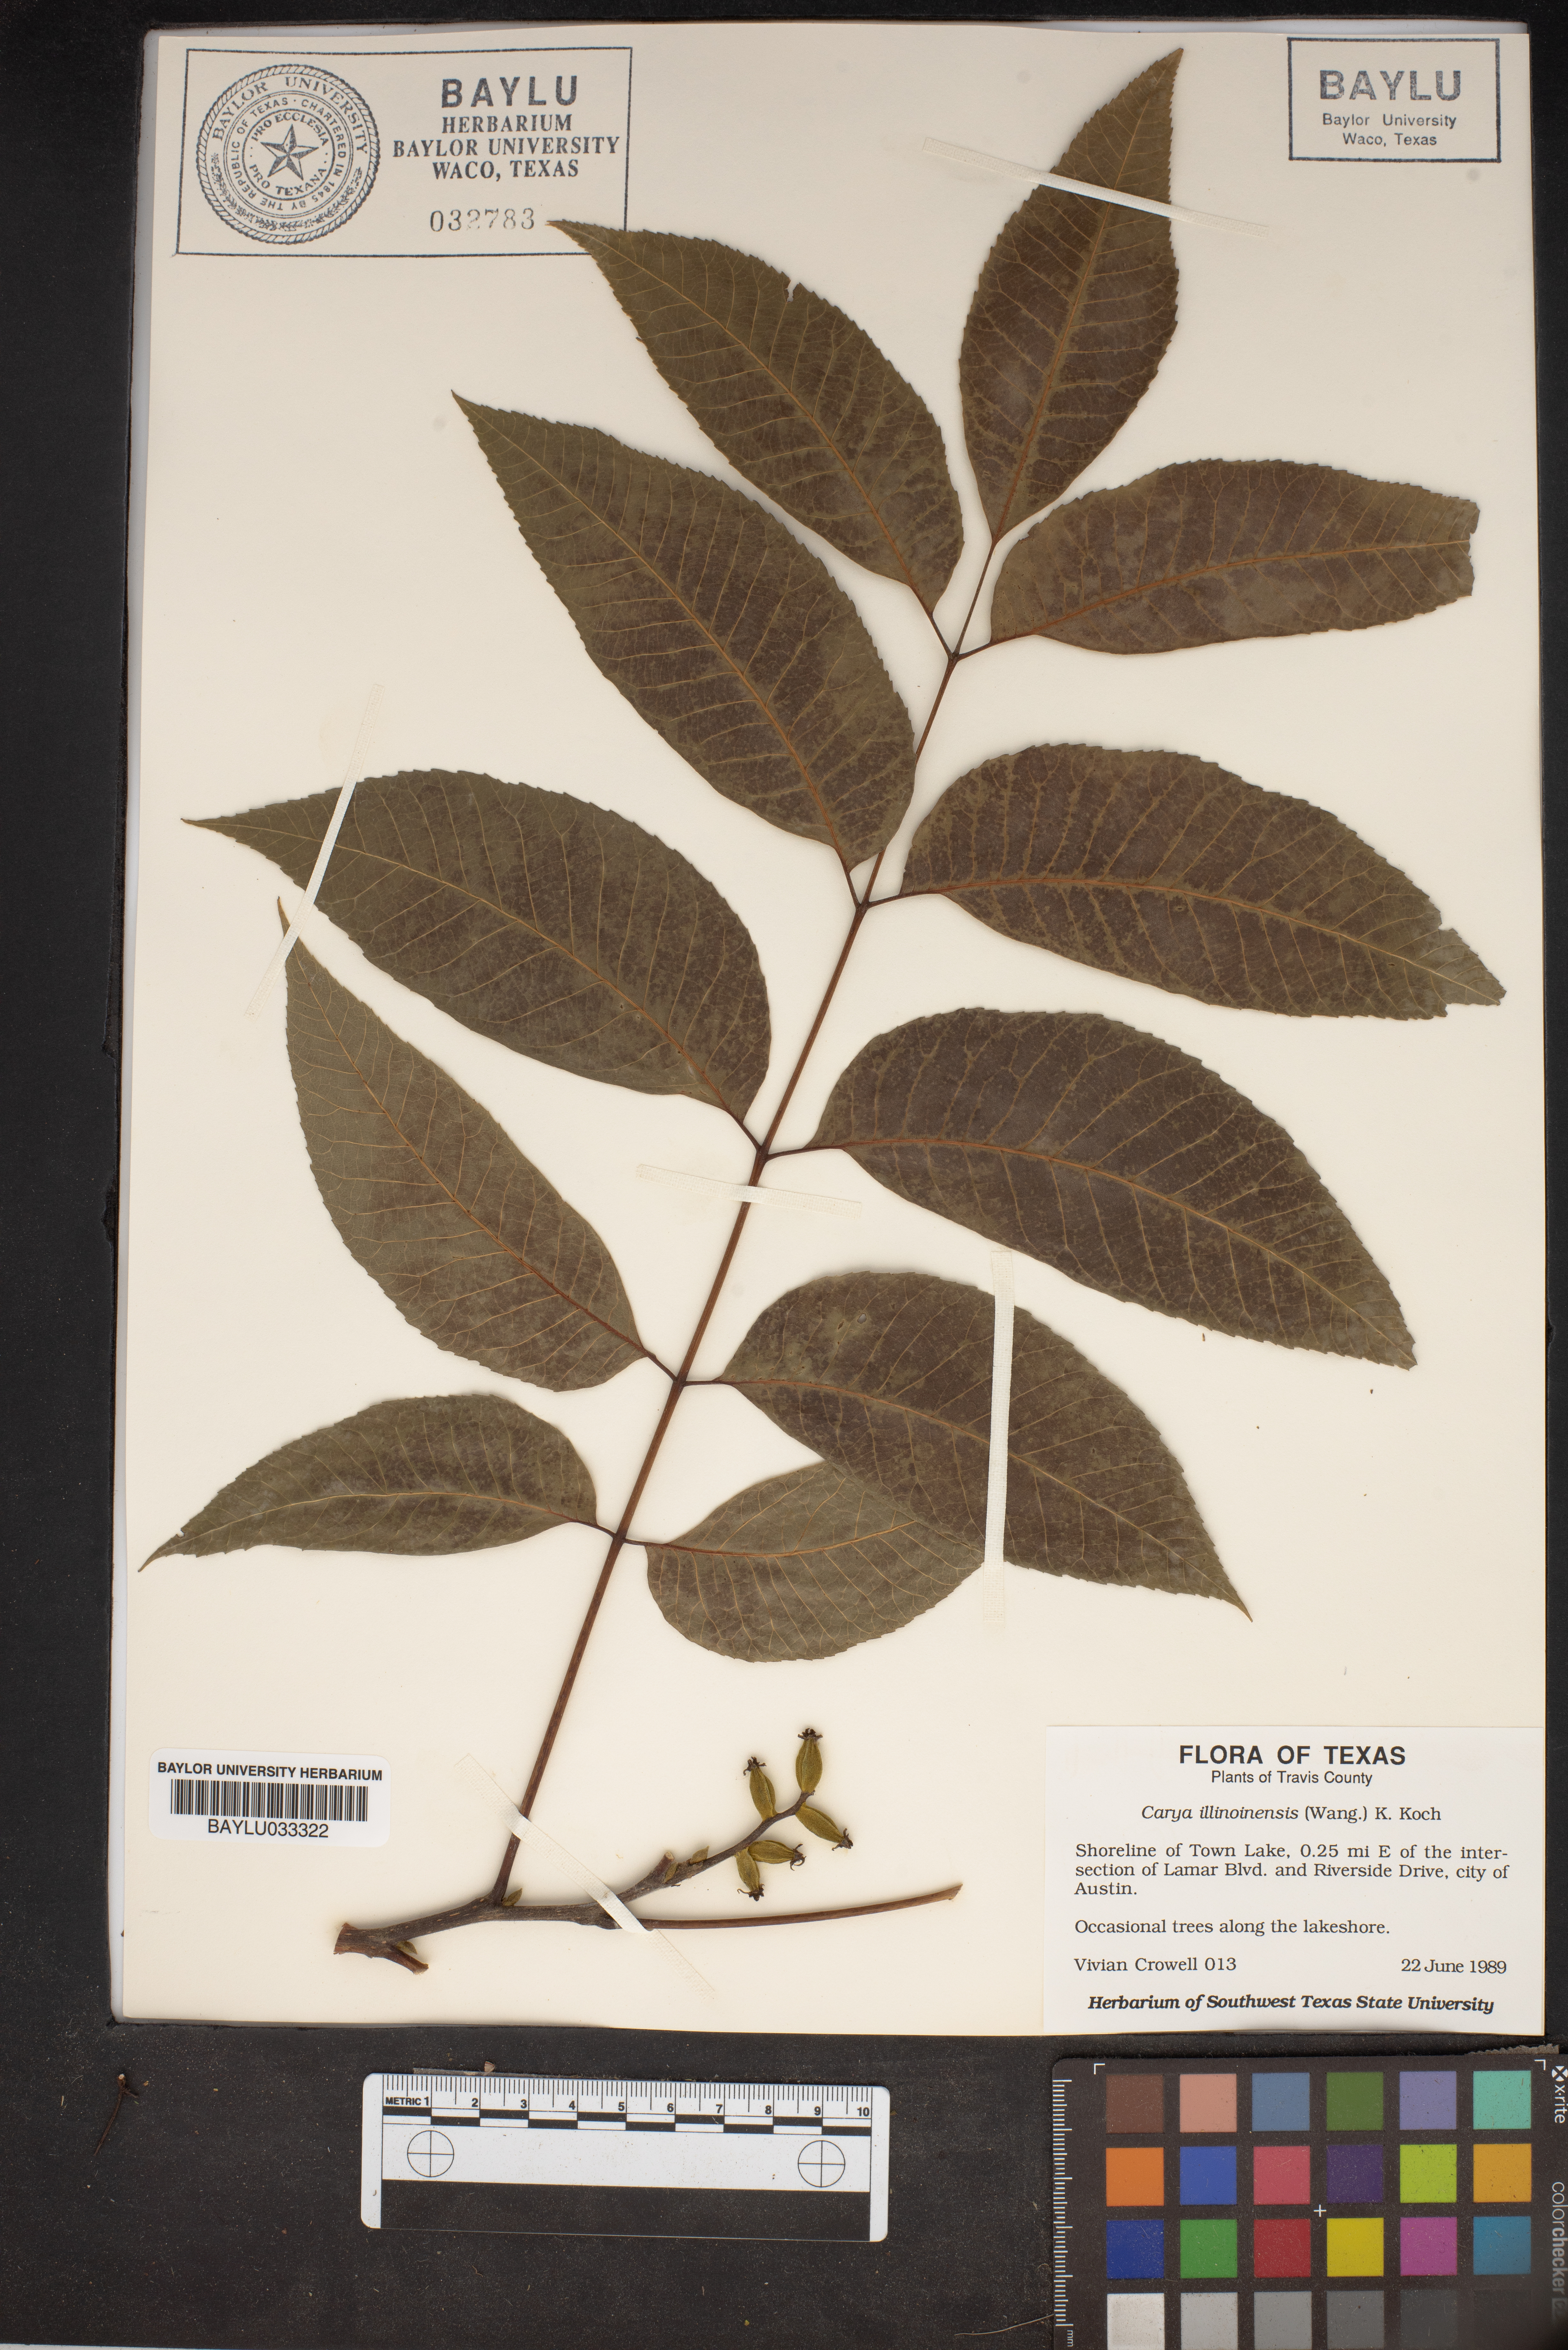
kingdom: Plantae
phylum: Tracheophyta
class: Magnoliopsida
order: Fagales
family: Juglandaceae
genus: Carya
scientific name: Carya illinoinensis
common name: Pecan
